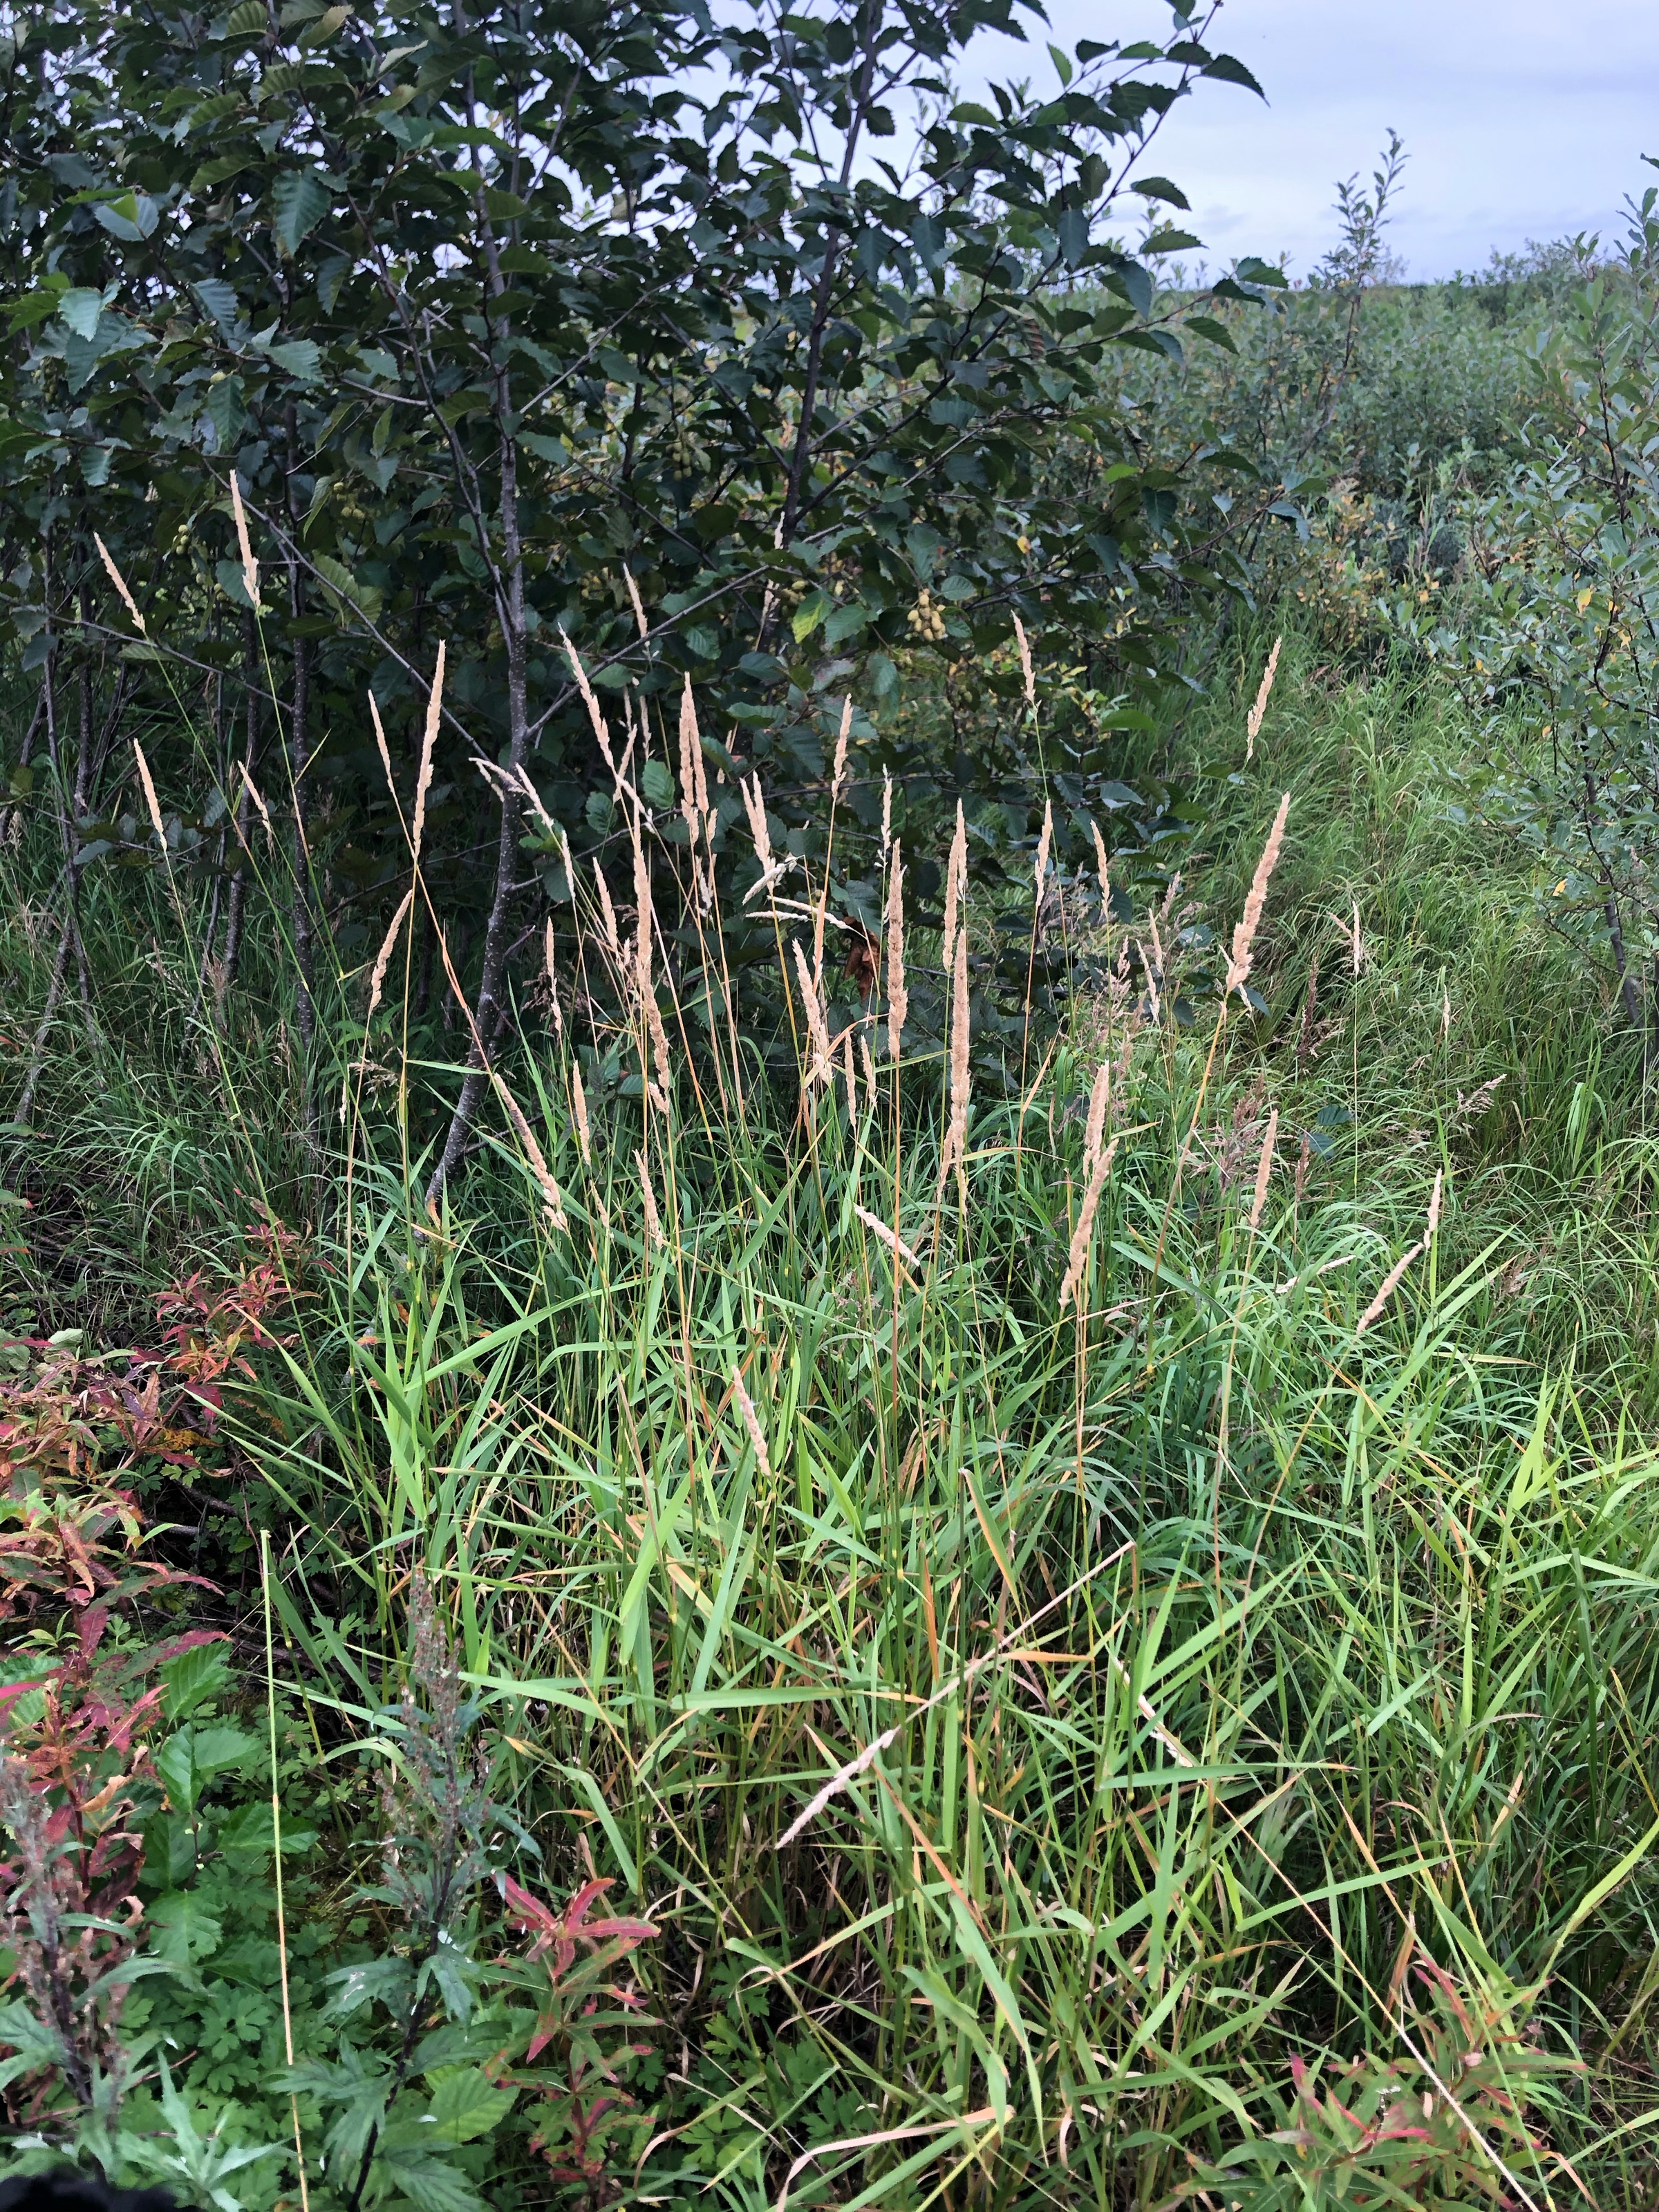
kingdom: Plantae
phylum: Tracheophyta
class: Liliopsida
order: Poales
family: Poaceae
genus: Phalaris
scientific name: Phalaris arundinacea
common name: Reed canarygrass
